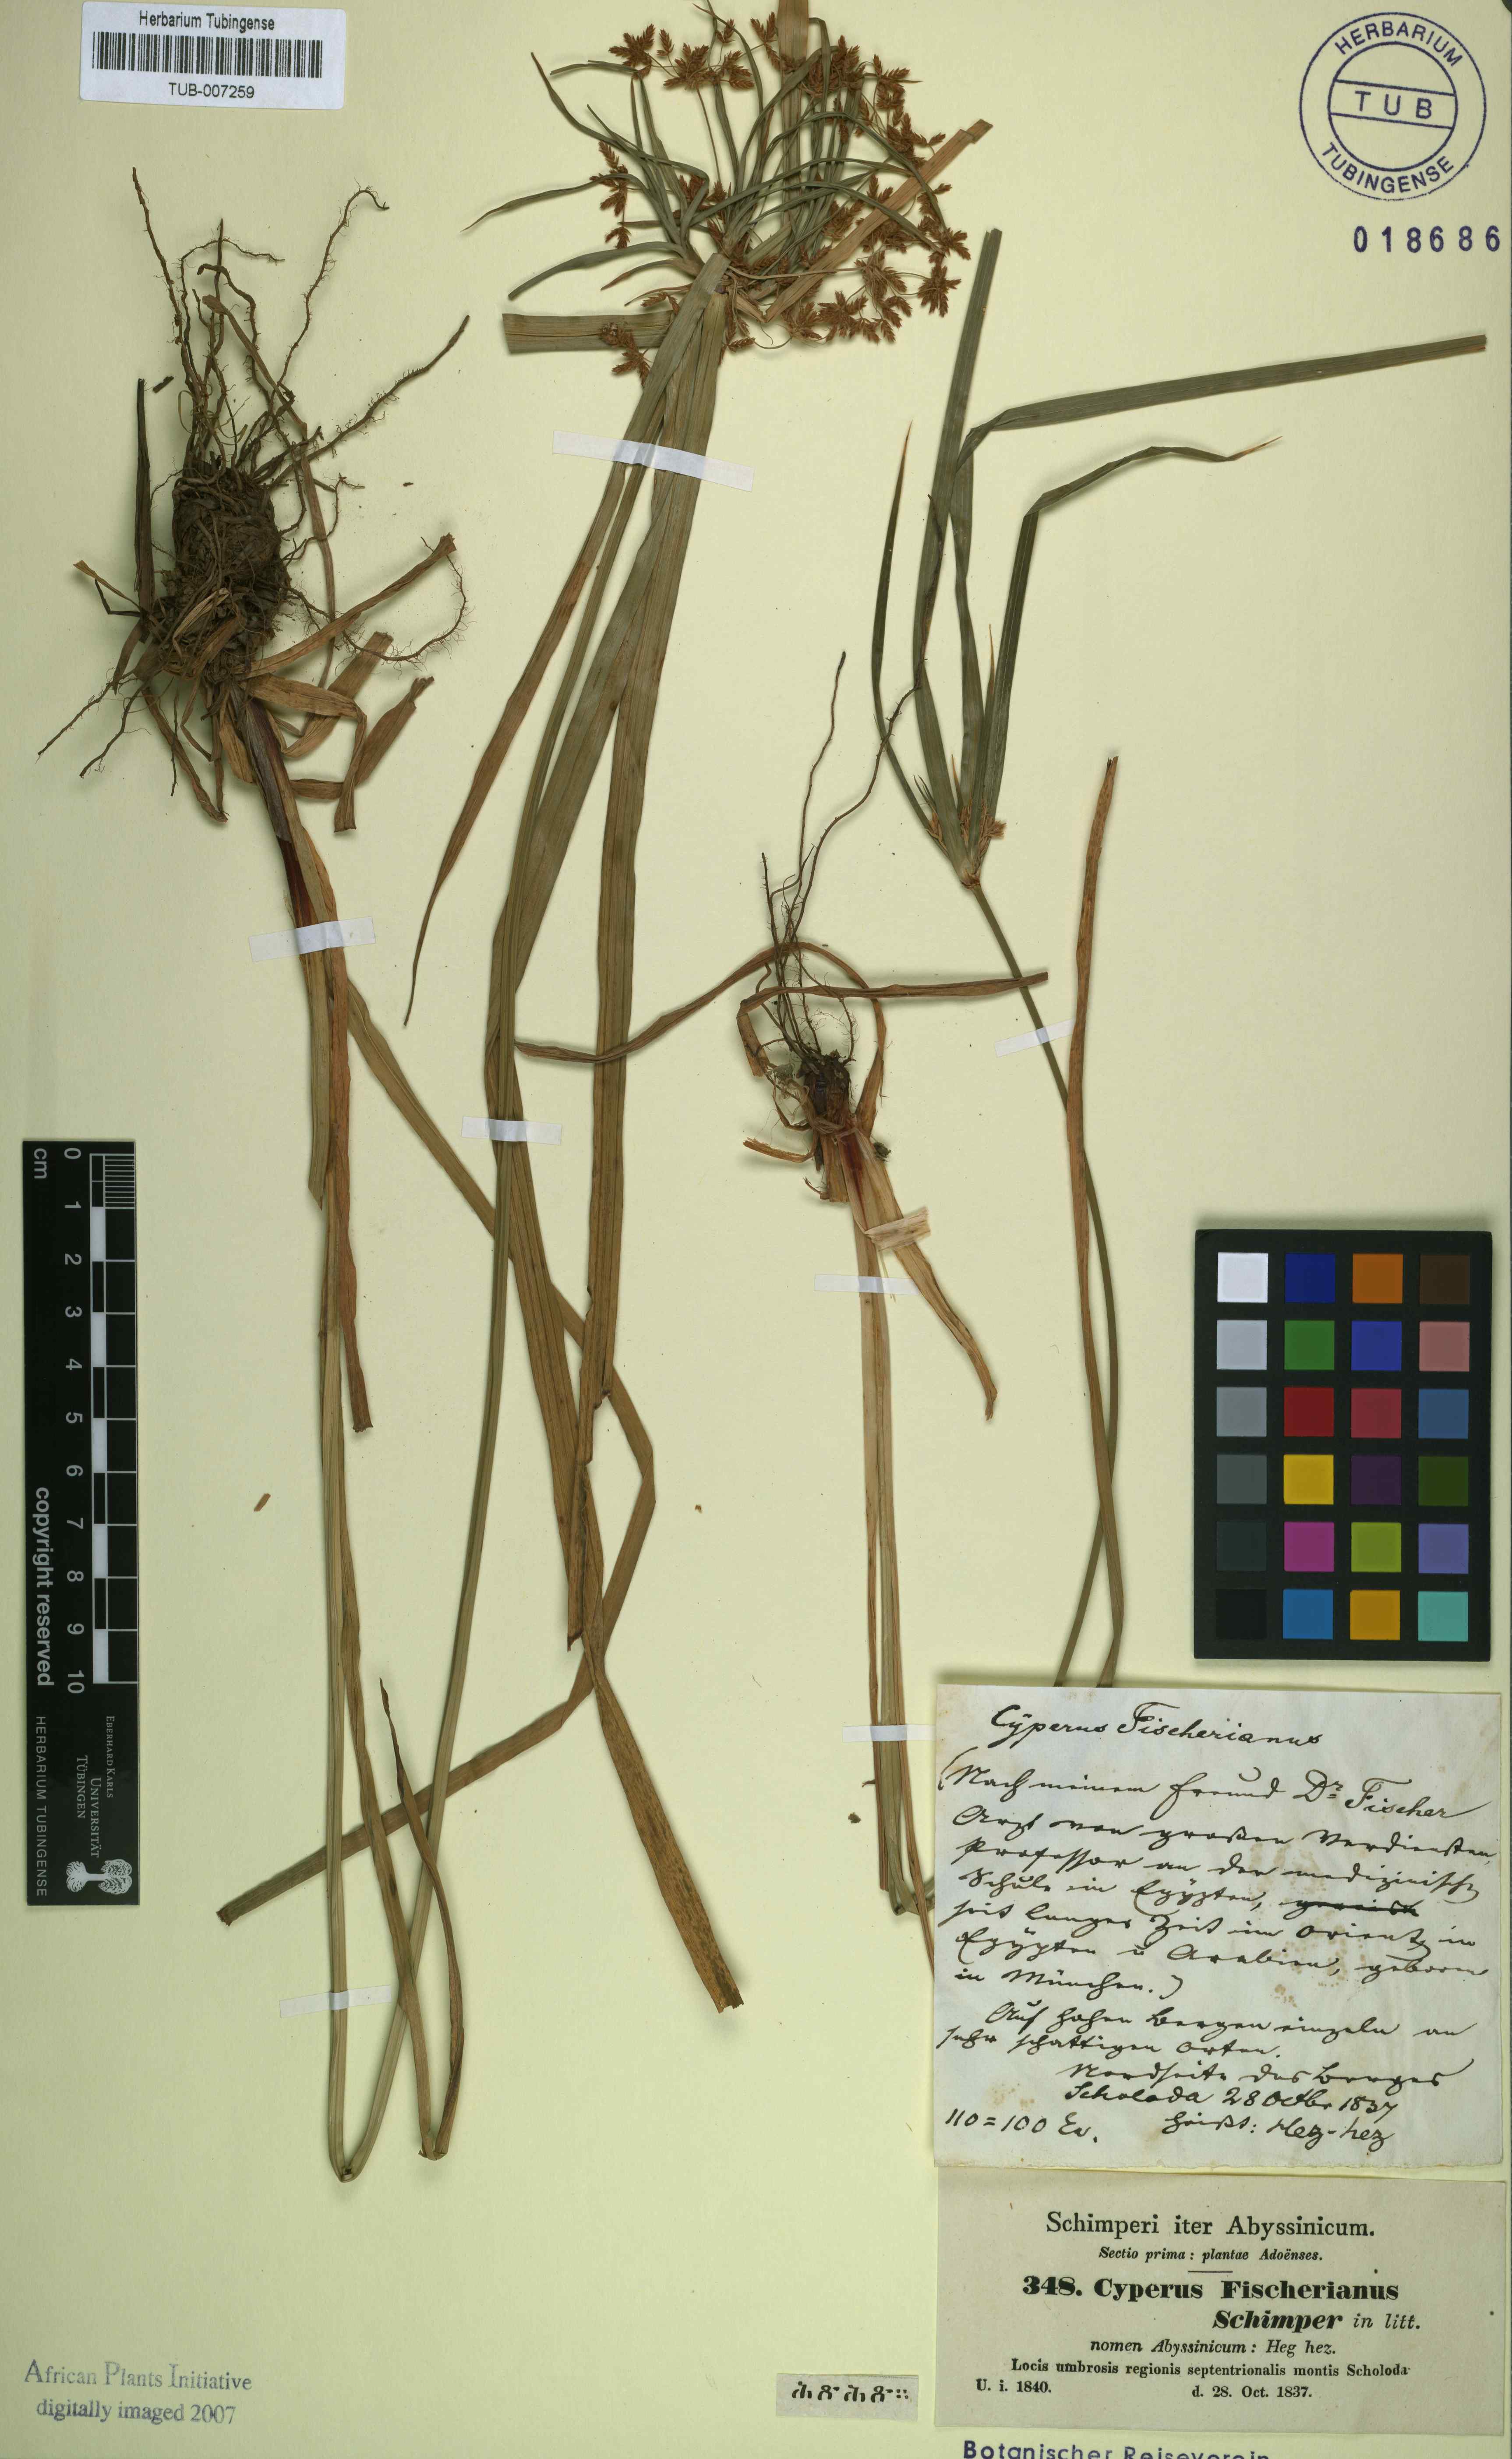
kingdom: Plantae
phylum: Tracheophyta
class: Liliopsida
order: Poales
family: Cyperaceae
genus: Cyperus
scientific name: Cyperus fischerianus
